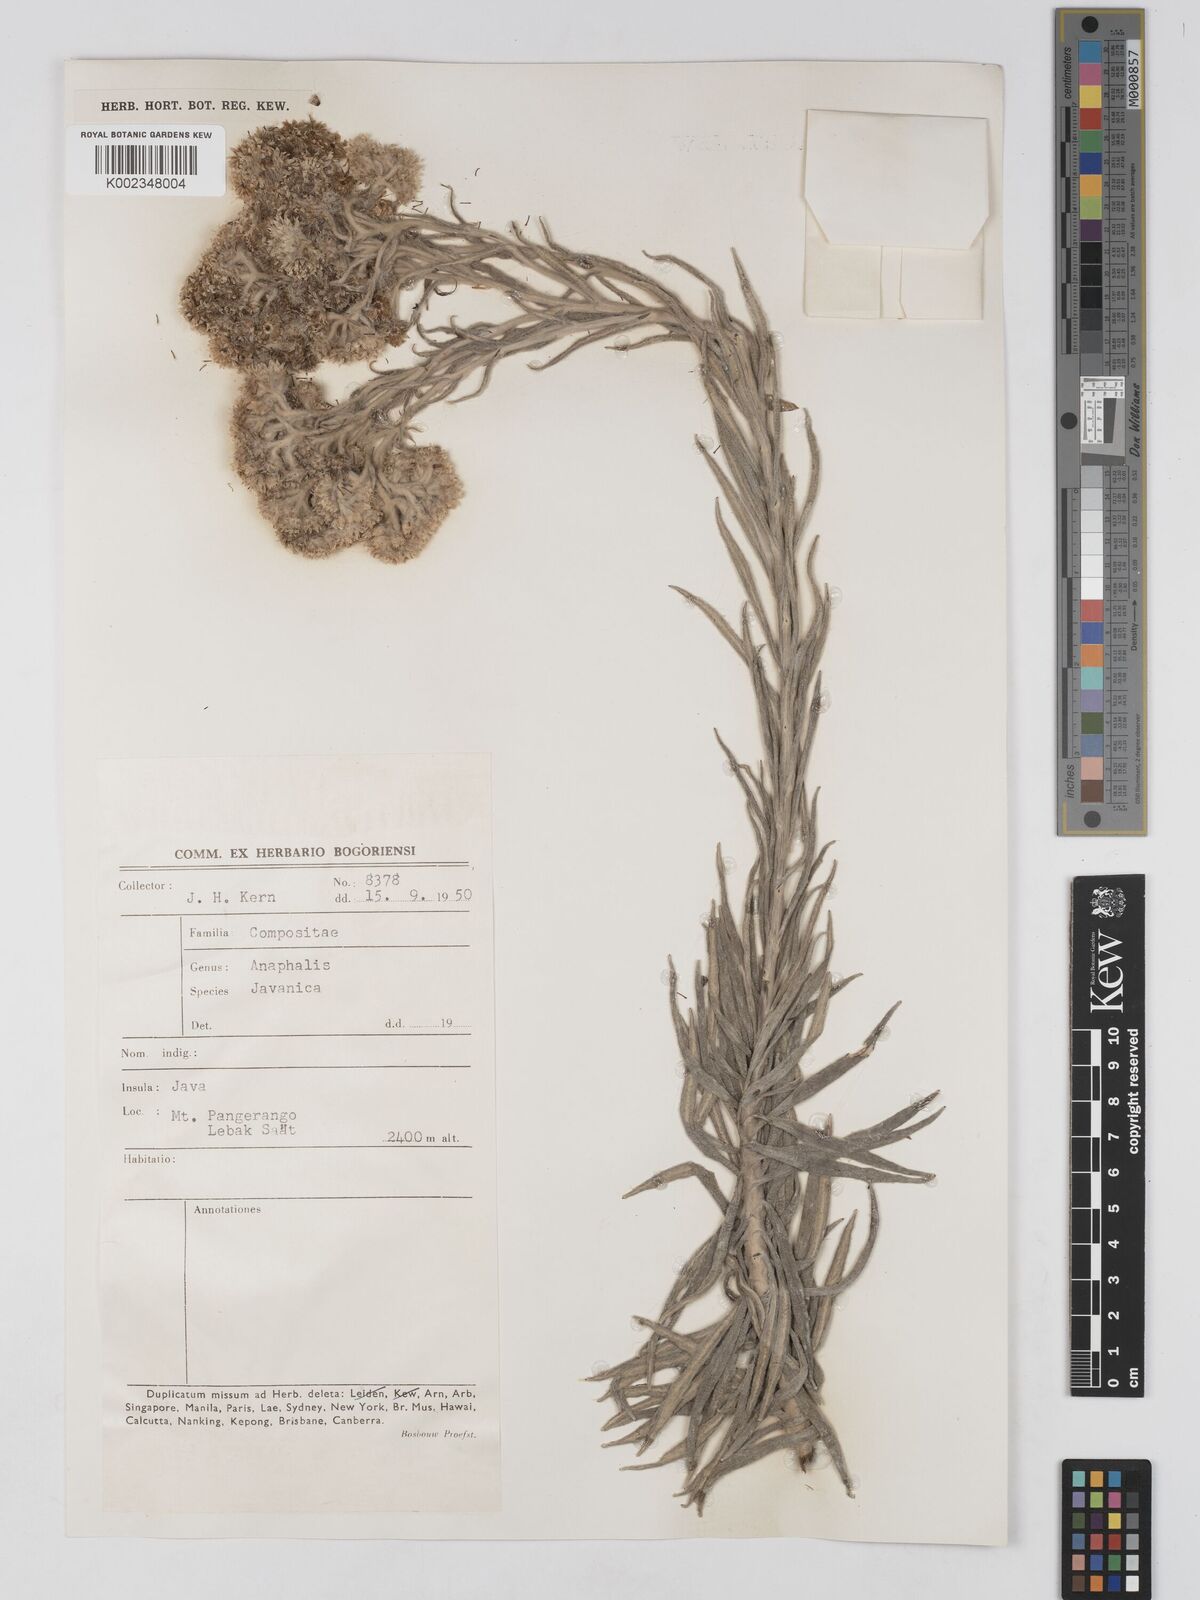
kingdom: Plantae
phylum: Tracheophyta
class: Magnoliopsida
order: Asterales
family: Asteraceae
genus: Anaphalis
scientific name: Anaphalis javanica
